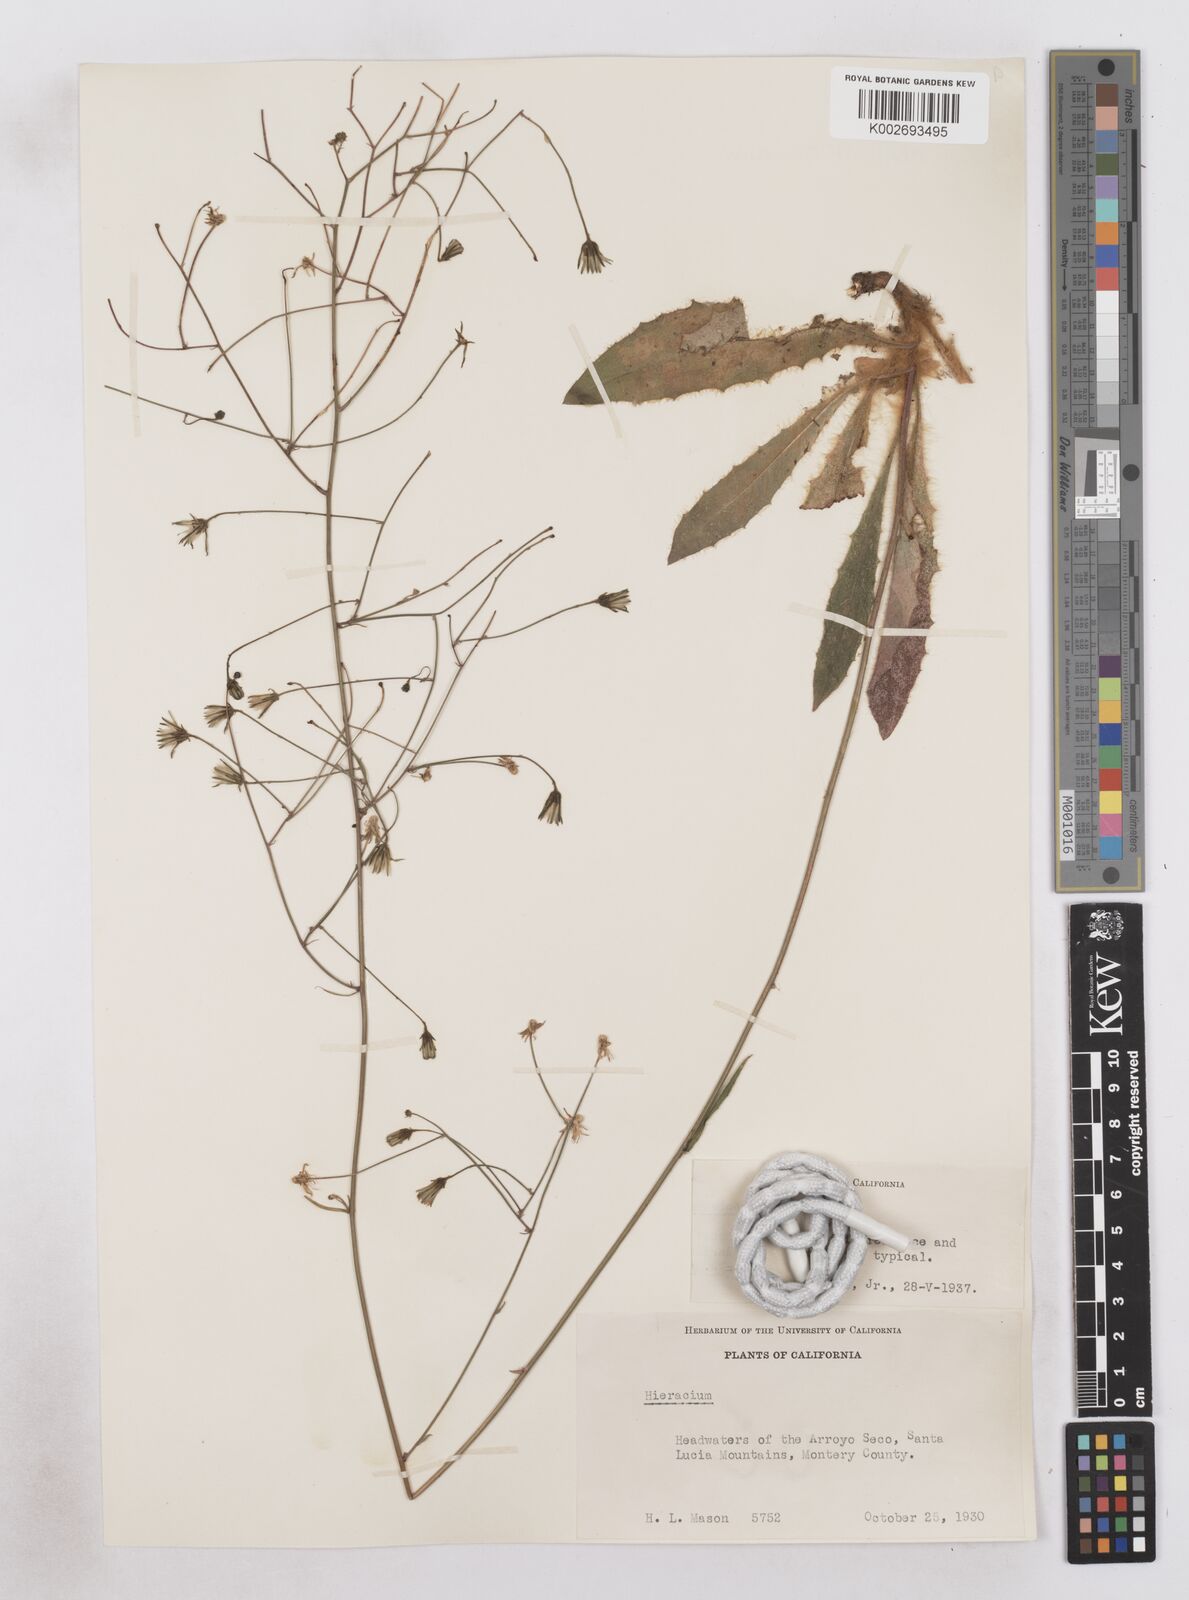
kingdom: Plantae
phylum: Tracheophyta
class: Magnoliopsida
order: Asterales
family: Asteraceae
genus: Hieracium
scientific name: Hieracium argutum
